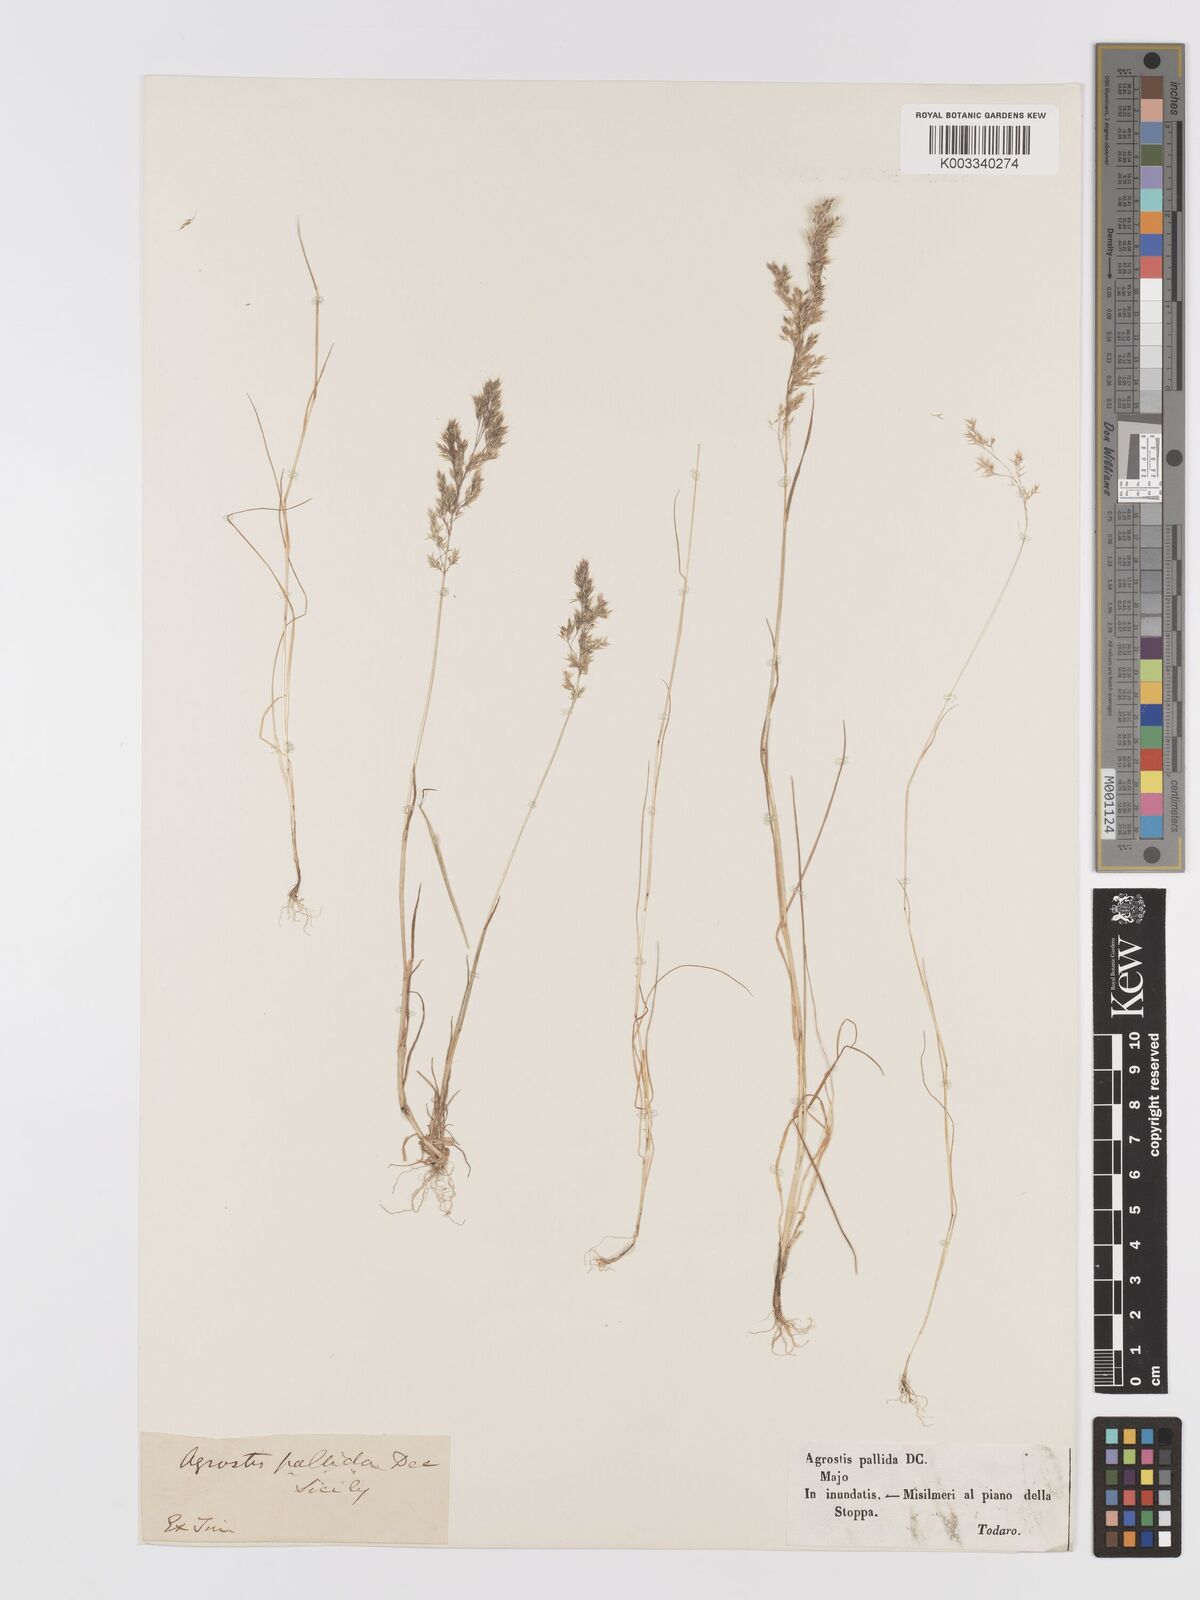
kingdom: Plantae
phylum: Tracheophyta
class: Liliopsida
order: Poales
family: Poaceae
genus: Agrostis
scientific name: Agrostis pourretii
